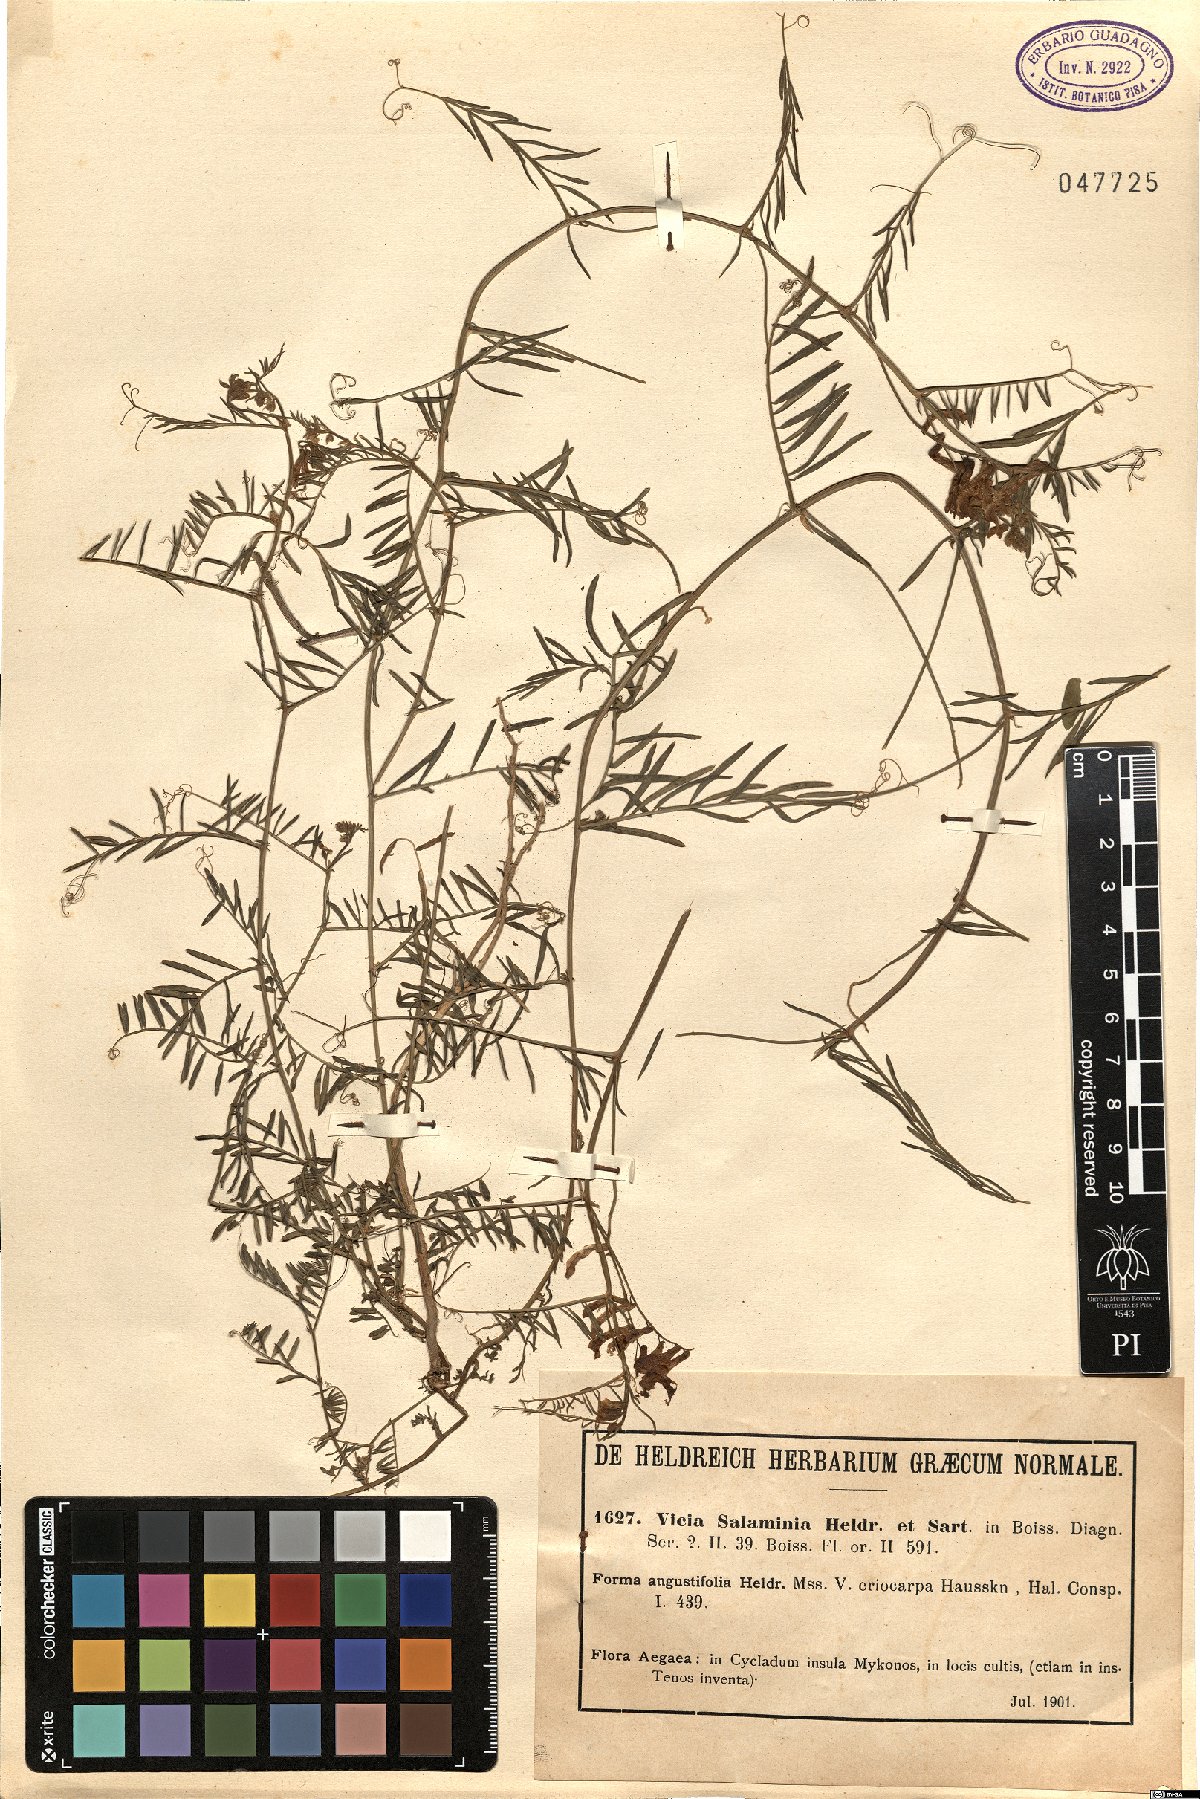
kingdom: Plantae
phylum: Tracheophyta
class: Magnoliopsida
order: Fabales
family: Fabaceae
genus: Vicia
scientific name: Vicia salaminia
